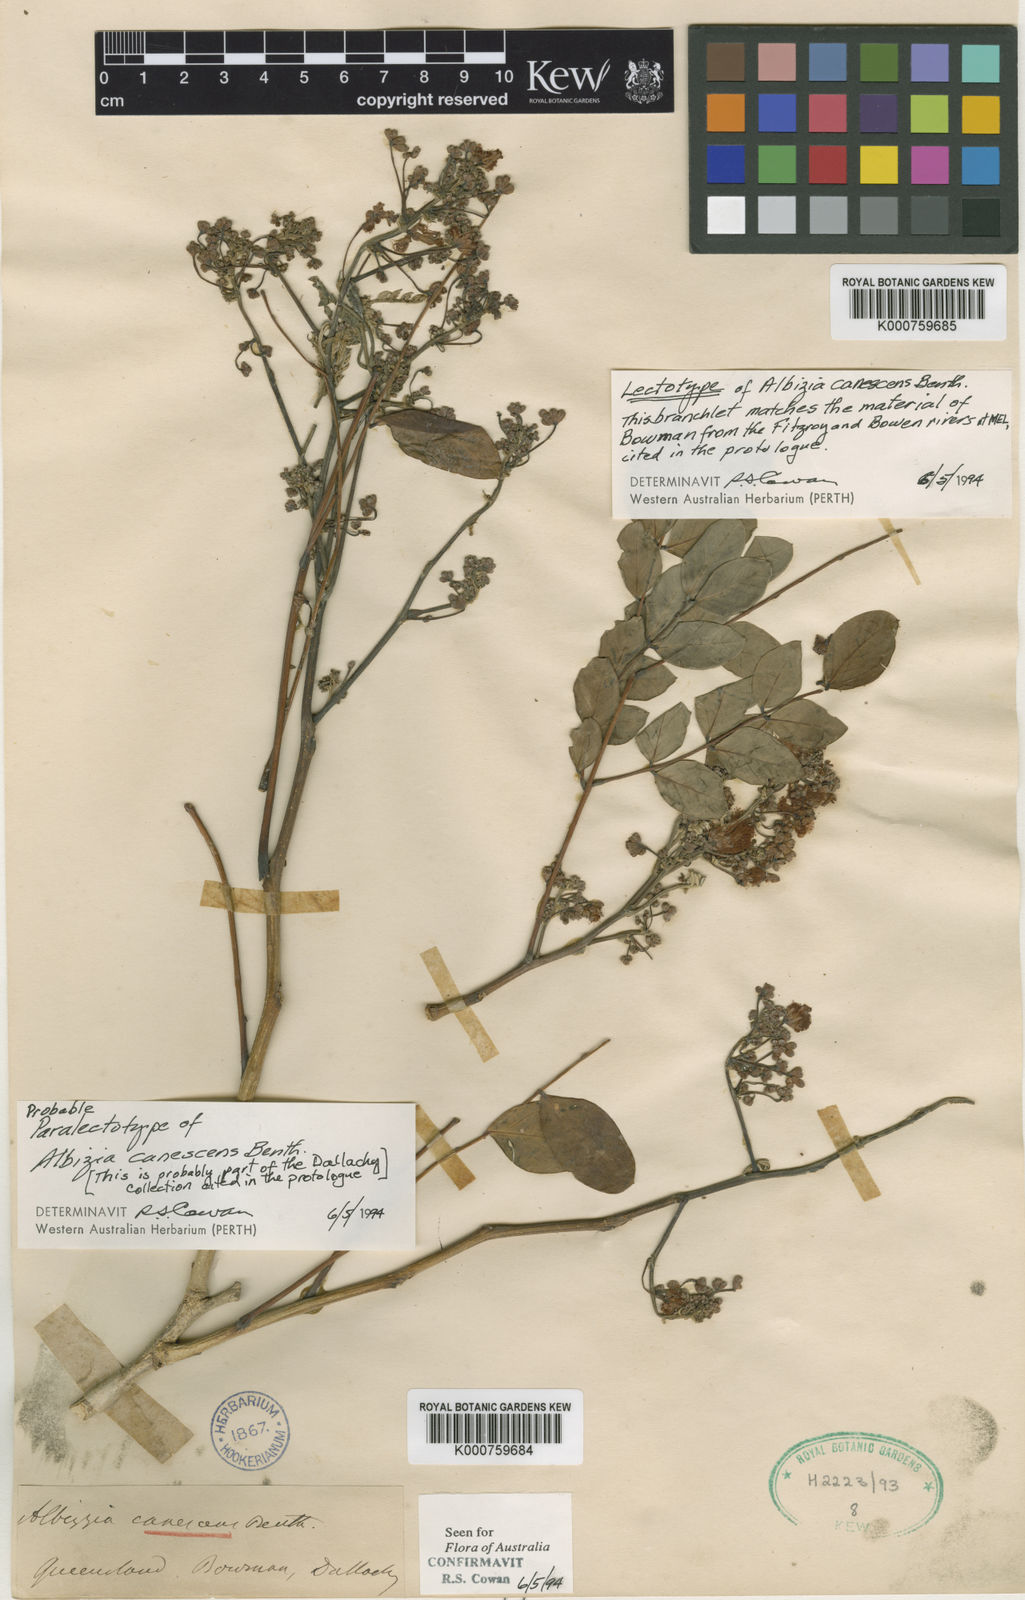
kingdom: Plantae
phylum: Tracheophyta
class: Magnoliopsida
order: Fabales
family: Fabaceae
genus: Albizia
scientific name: Albizia canescens
